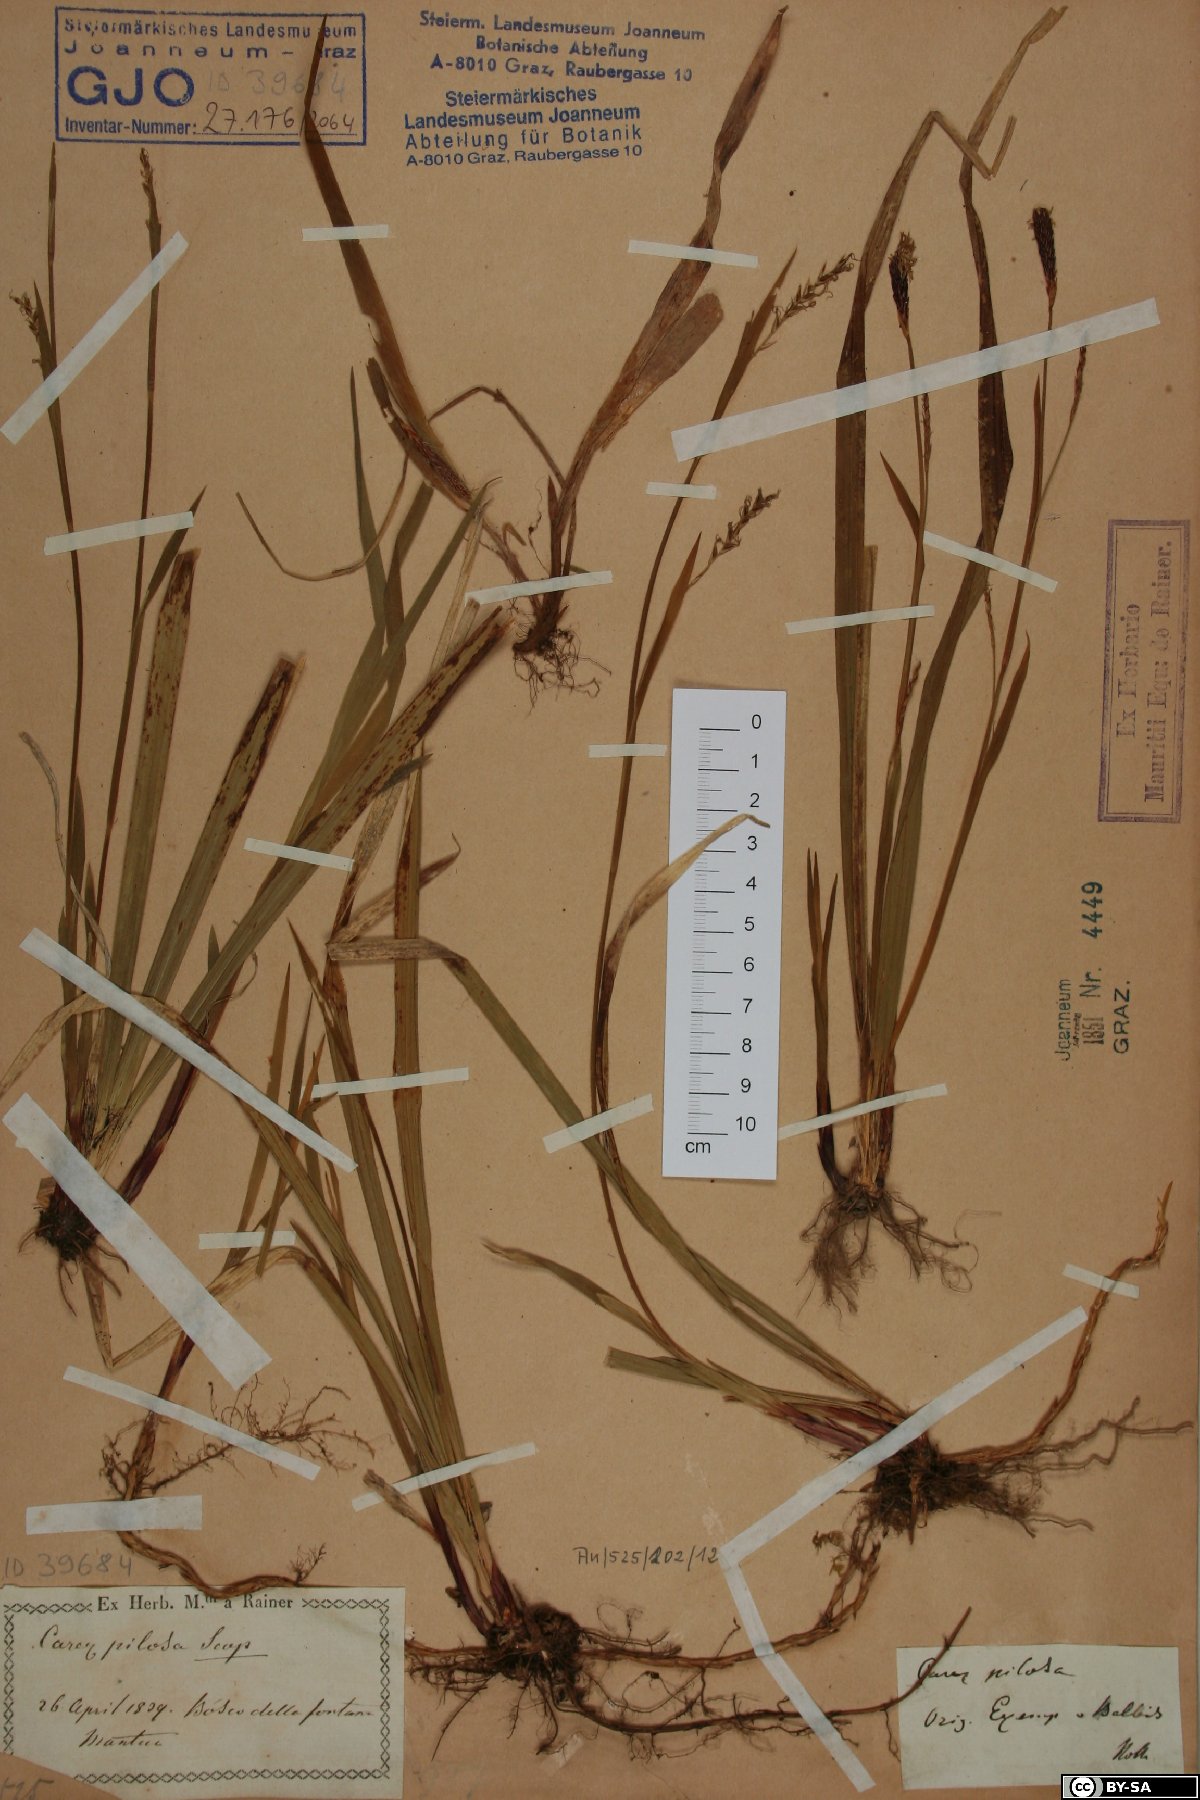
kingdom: Plantae
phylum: Tracheophyta
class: Liliopsida
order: Poales
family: Cyperaceae
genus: Carex
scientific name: Carex pilosa
